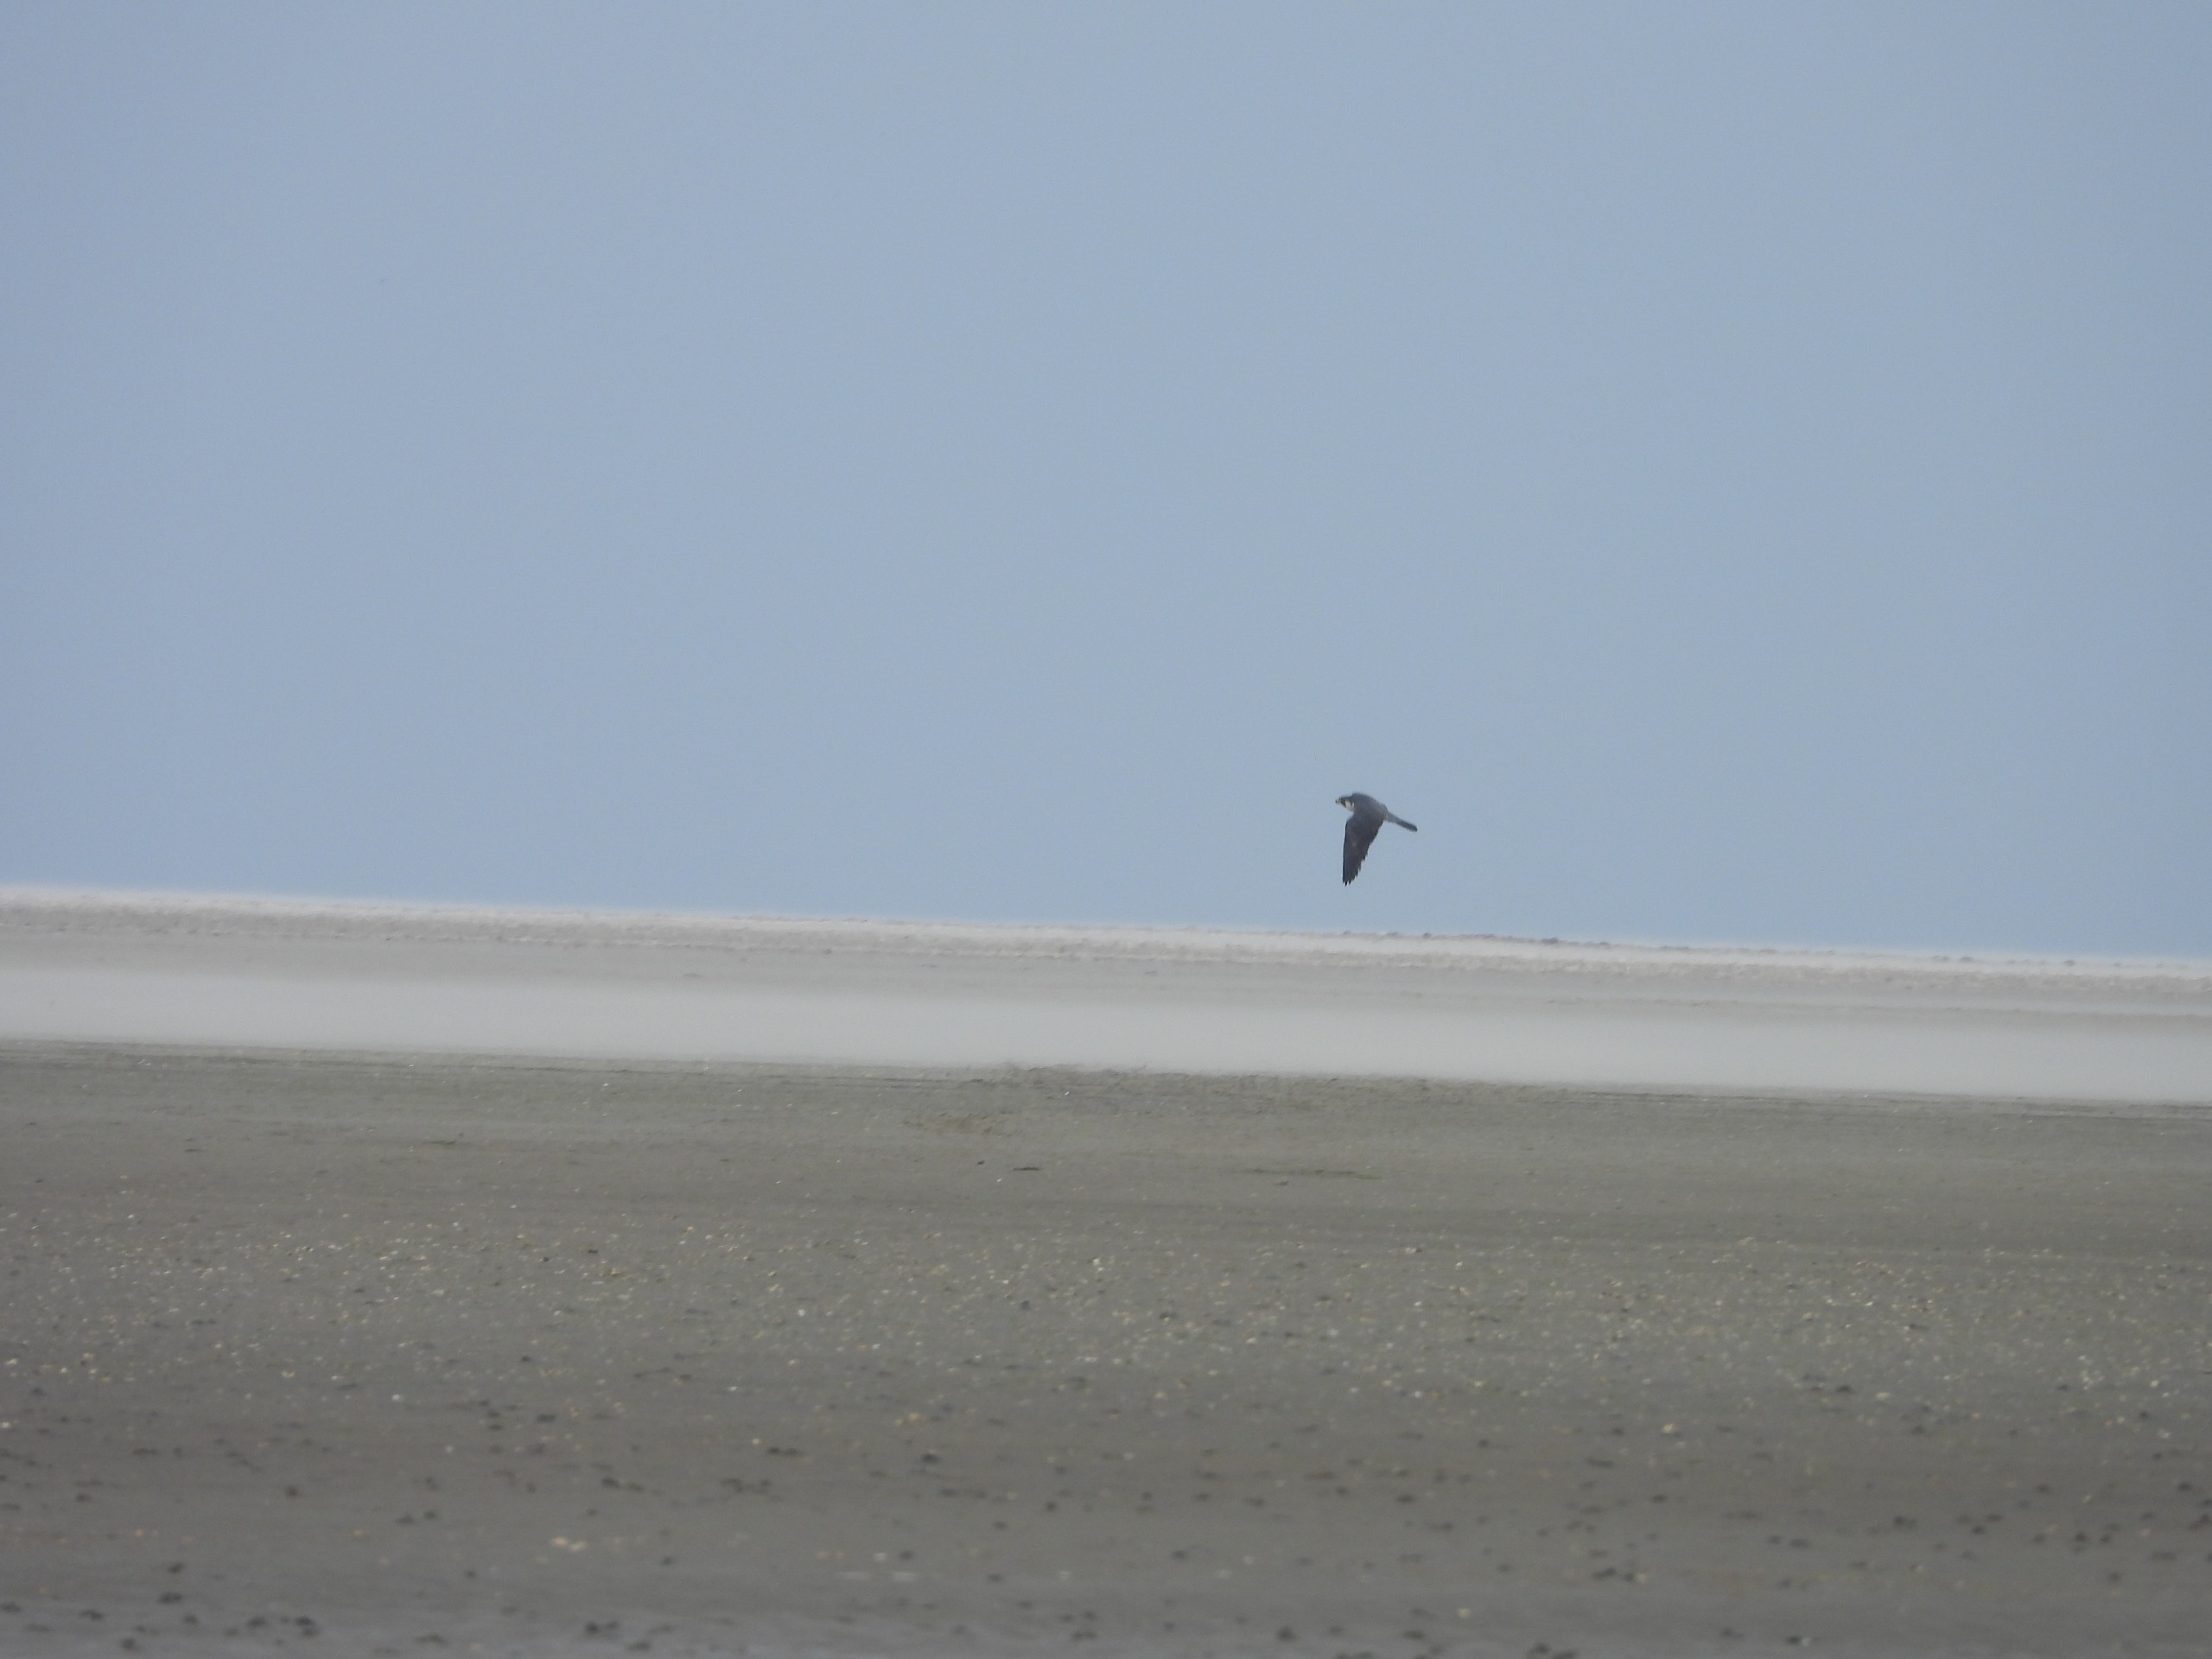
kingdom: Animalia
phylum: Chordata
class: Aves
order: Falconiformes
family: Falconidae
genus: Falco
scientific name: Falco peregrinus
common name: Vandrefalk
